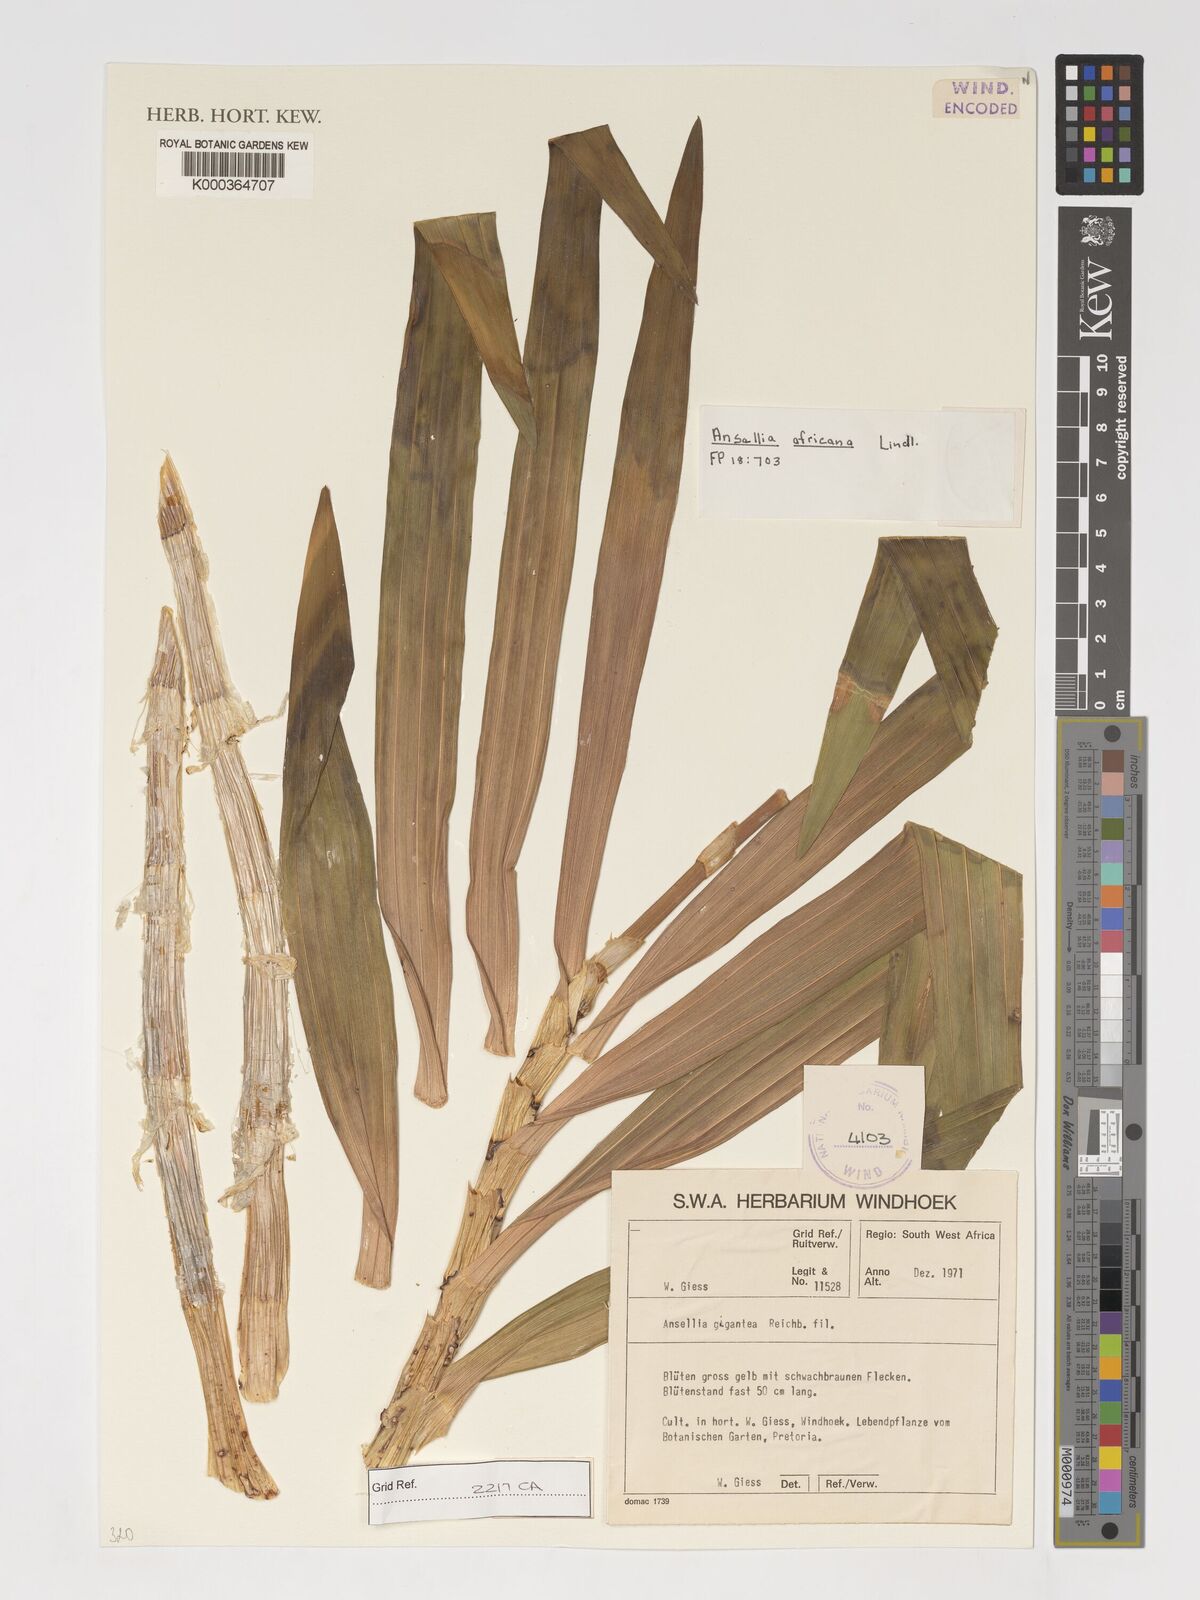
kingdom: Plantae
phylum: Tracheophyta
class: Liliopsida
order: Asparagales
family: Orchidaceae
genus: Ansellia
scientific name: Ansellia africana
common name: African ansellia
